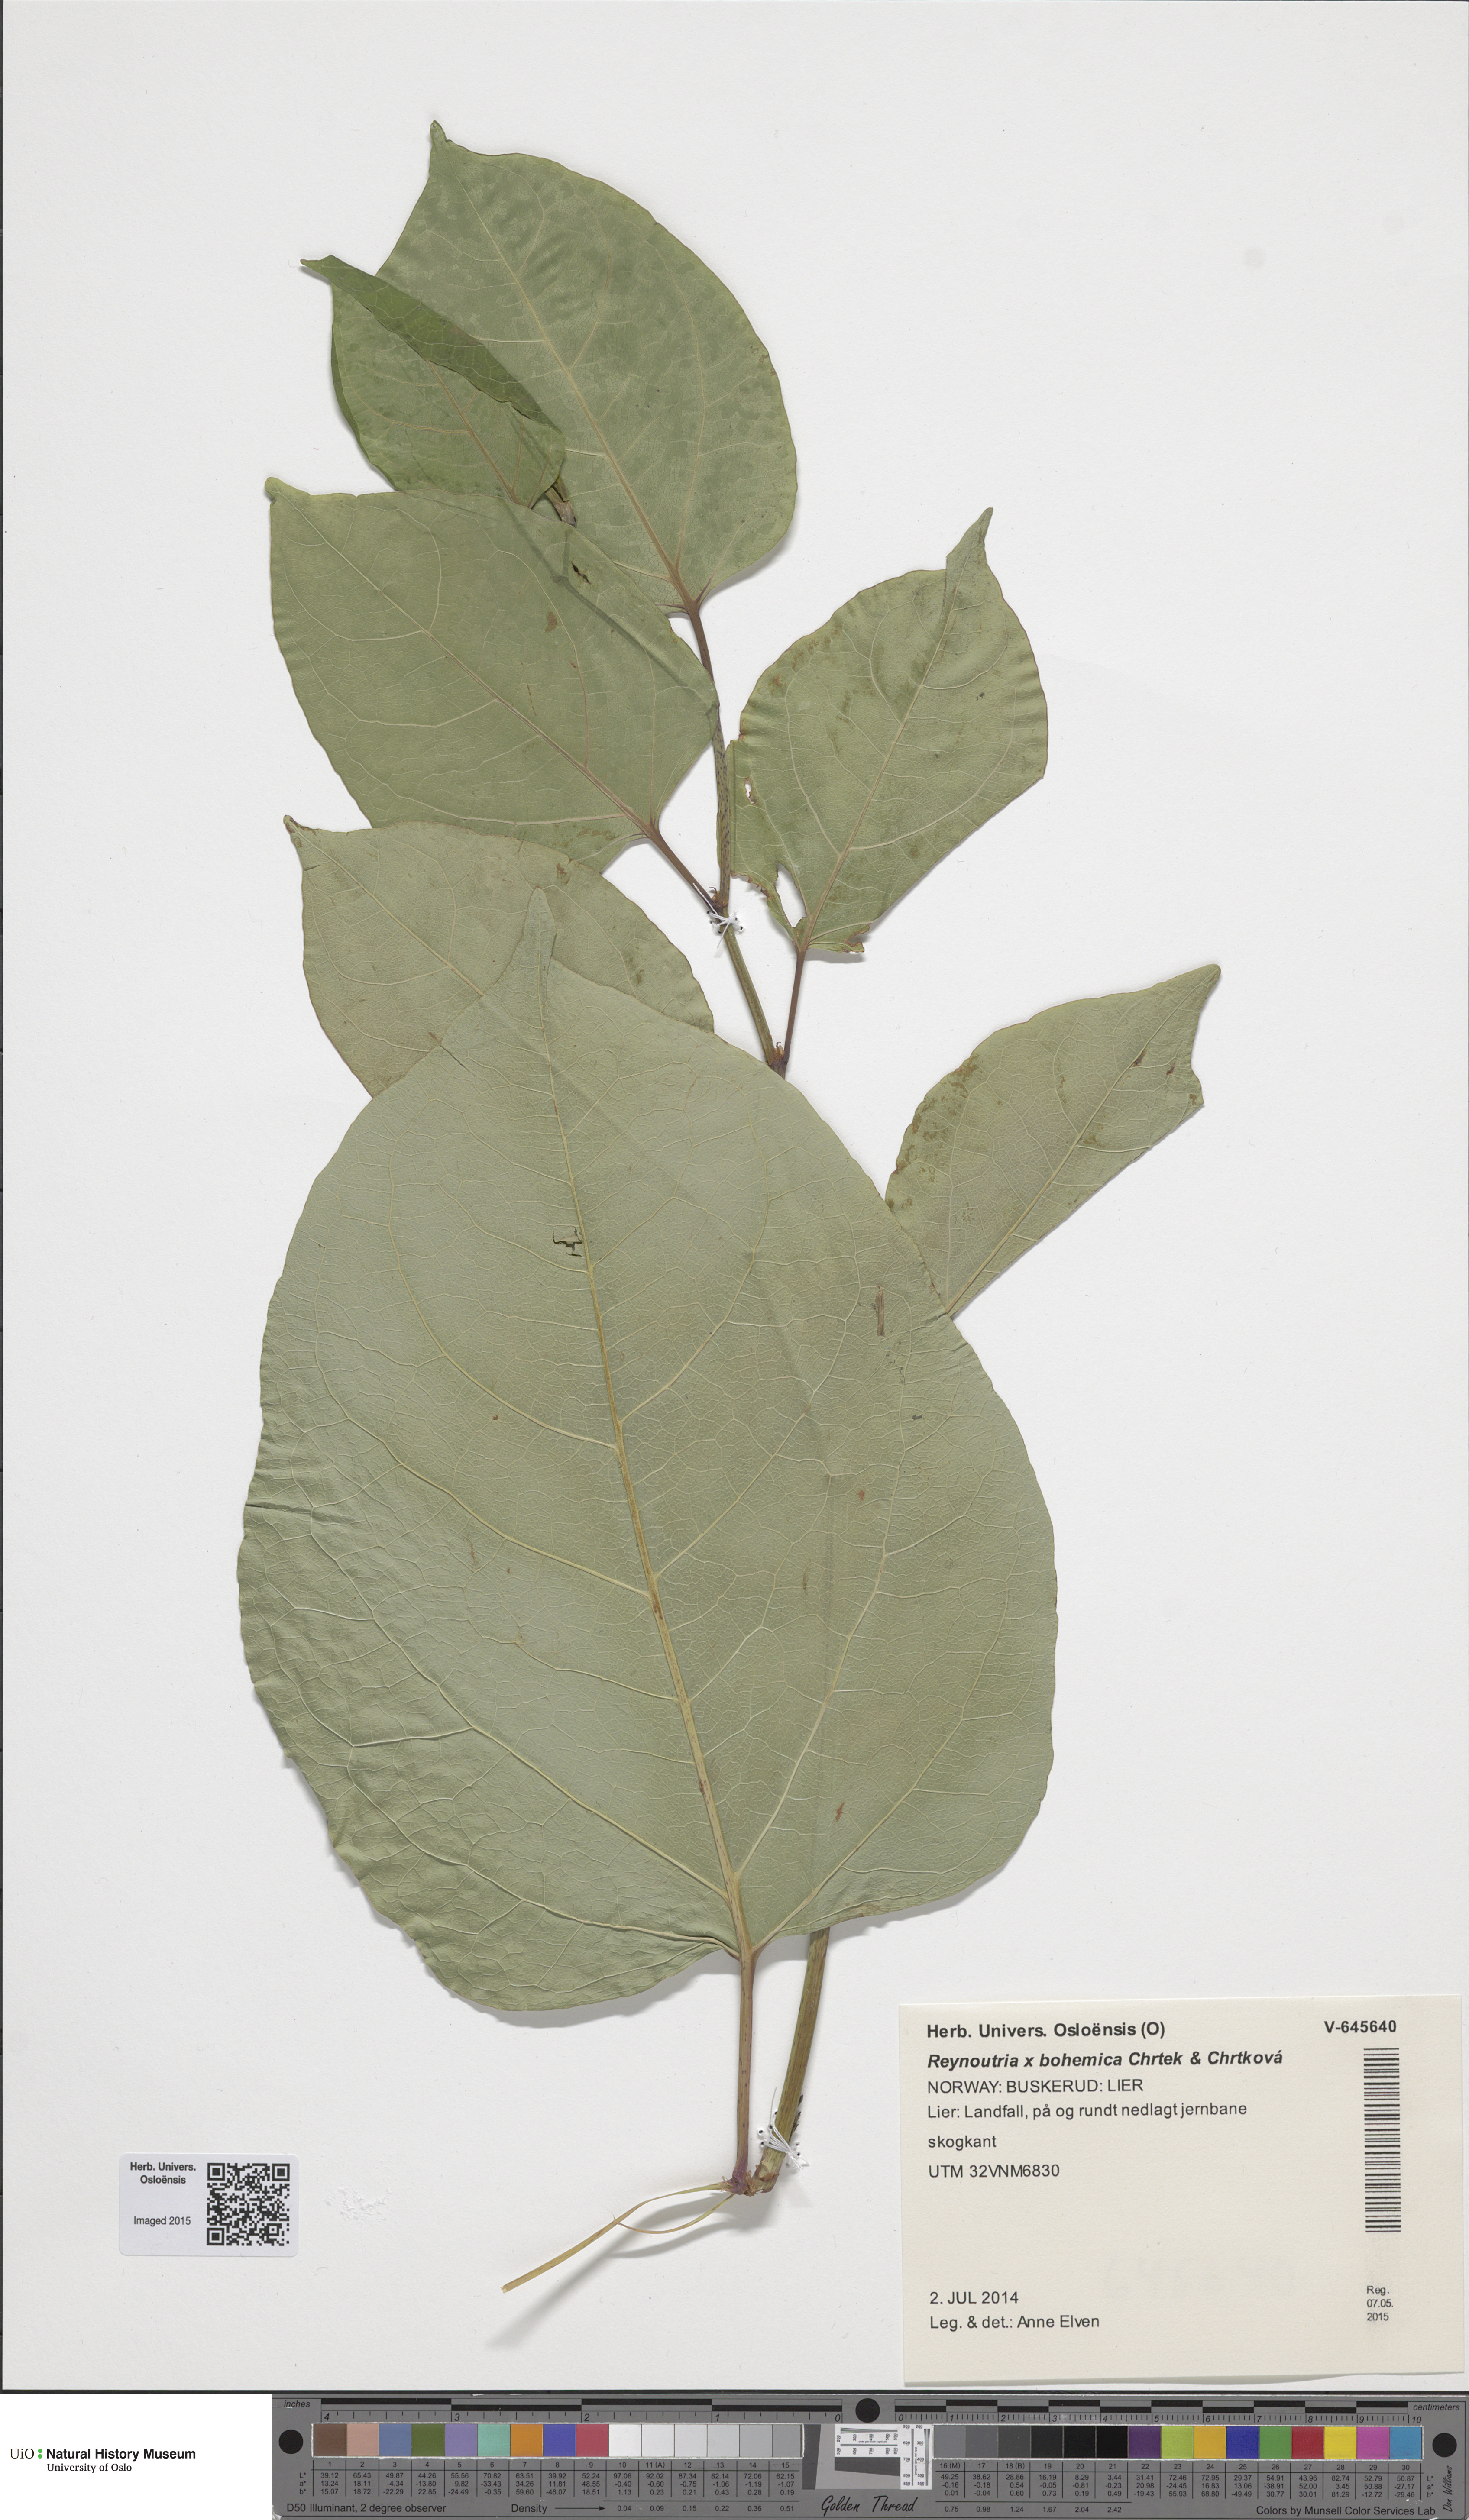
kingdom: Plantae
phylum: Tracheophyta
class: Magnoliopsida
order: Caryophyllales
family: Polygonaceae
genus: Reynoutria
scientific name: Reynoutria bohemica
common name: Bohemian knotweed
